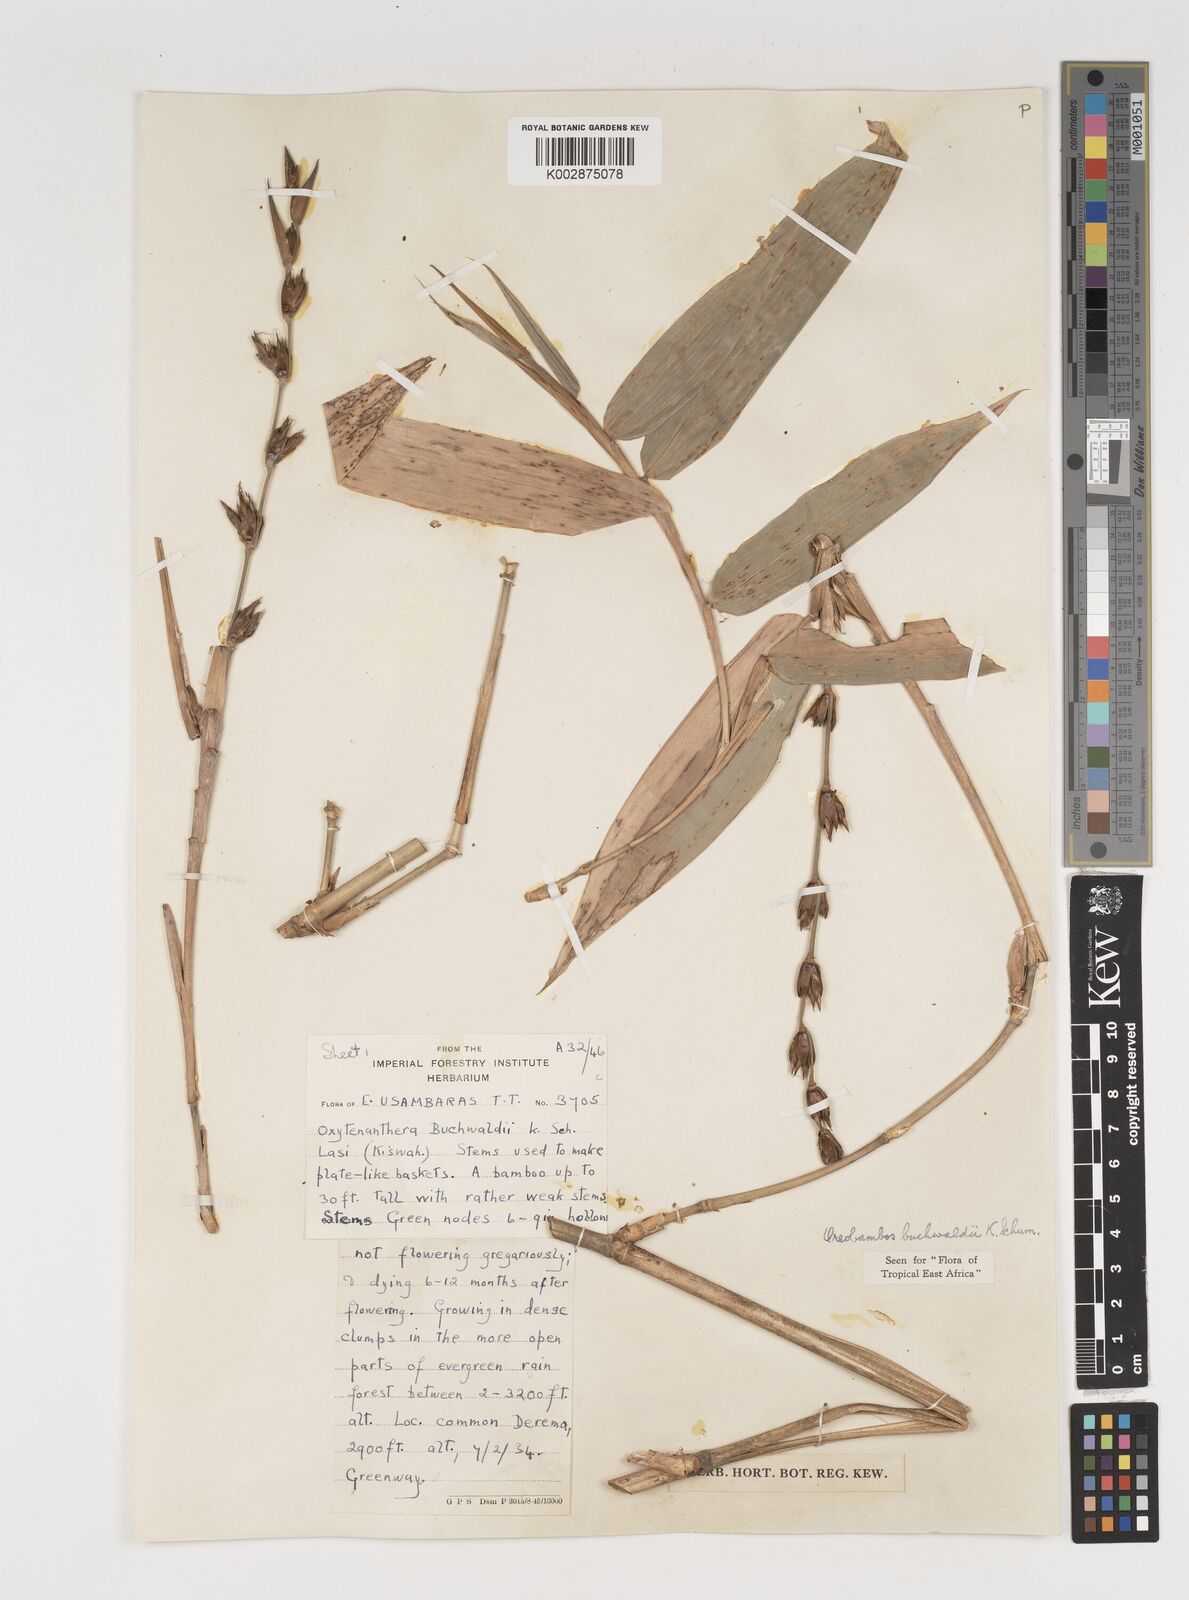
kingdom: Plantae
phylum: Tracheophyta
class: Liliopsida
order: Poales
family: Poaceae
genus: Oreobambos
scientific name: Oreobambos buchwaldii
